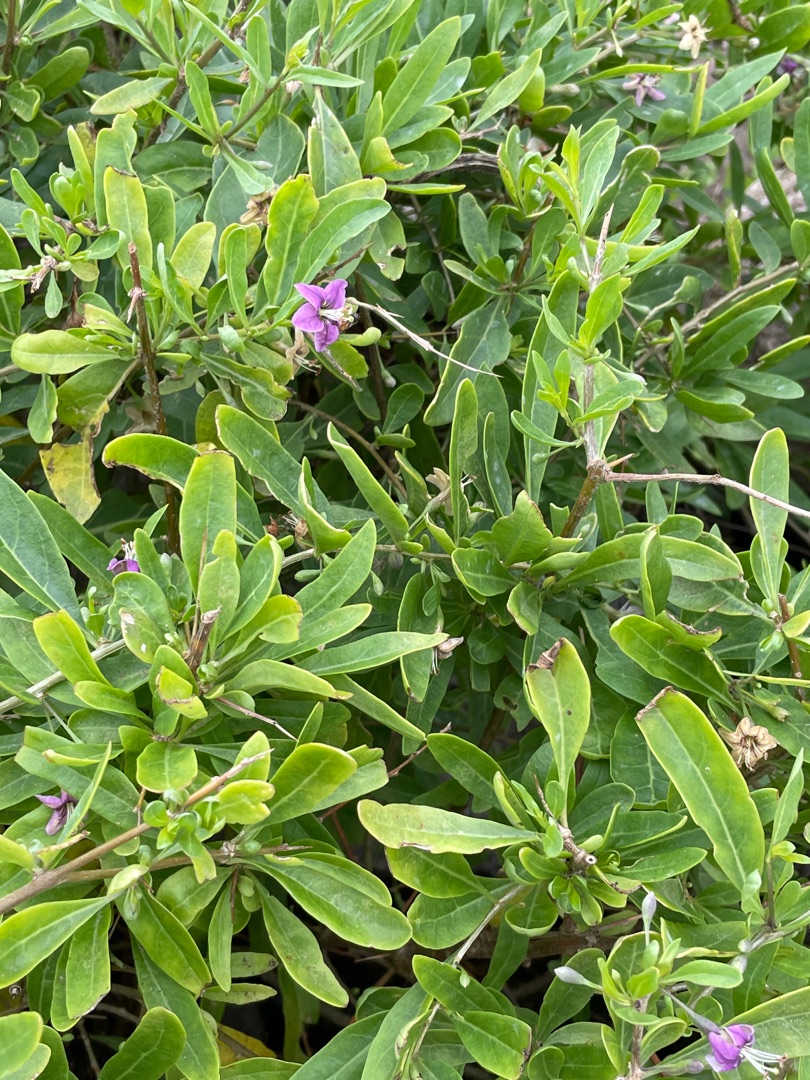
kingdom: Plantae
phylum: Tracheophyta
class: Magnoliopsida
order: Solanales
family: Solanaceae
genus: Lycium
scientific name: Lycium barbarum
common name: Bukketorn
